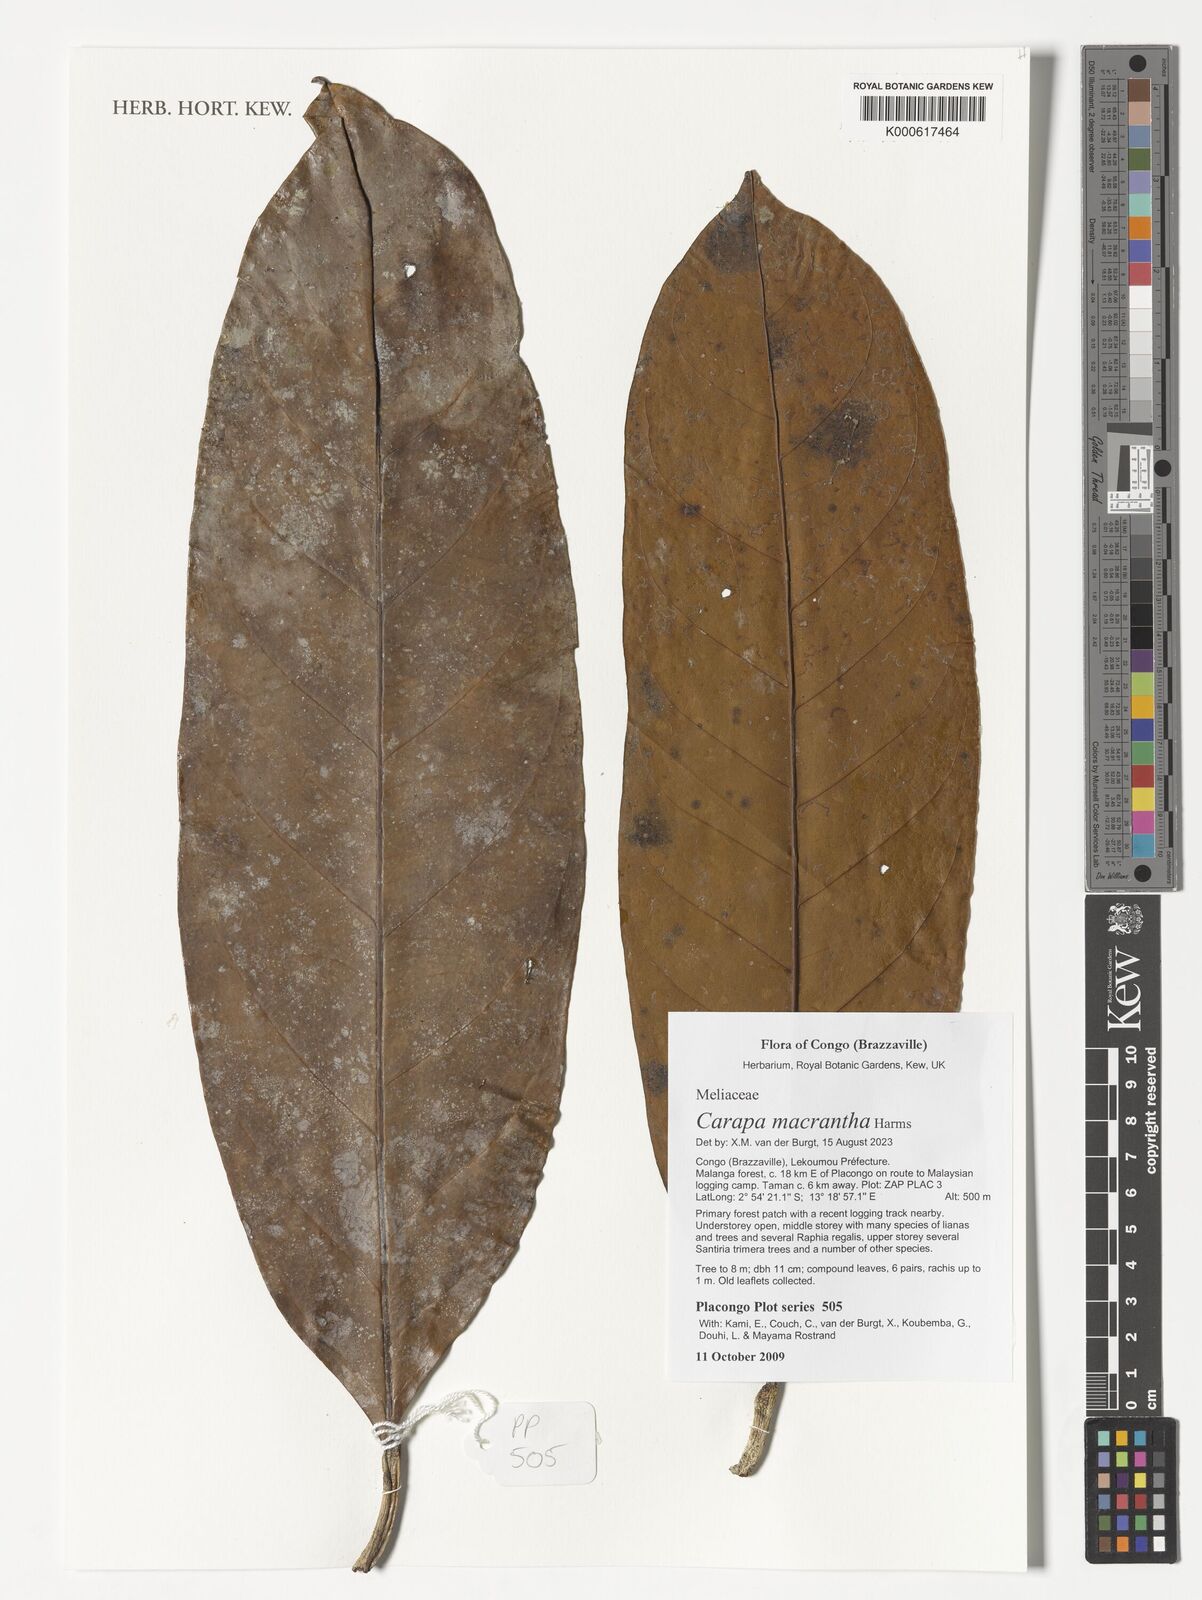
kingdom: Plantae
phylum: Tracheophyta
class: Magnoliopsida
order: Sapindales
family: Meliaceae
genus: Carapa
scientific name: Carapa macrantha
